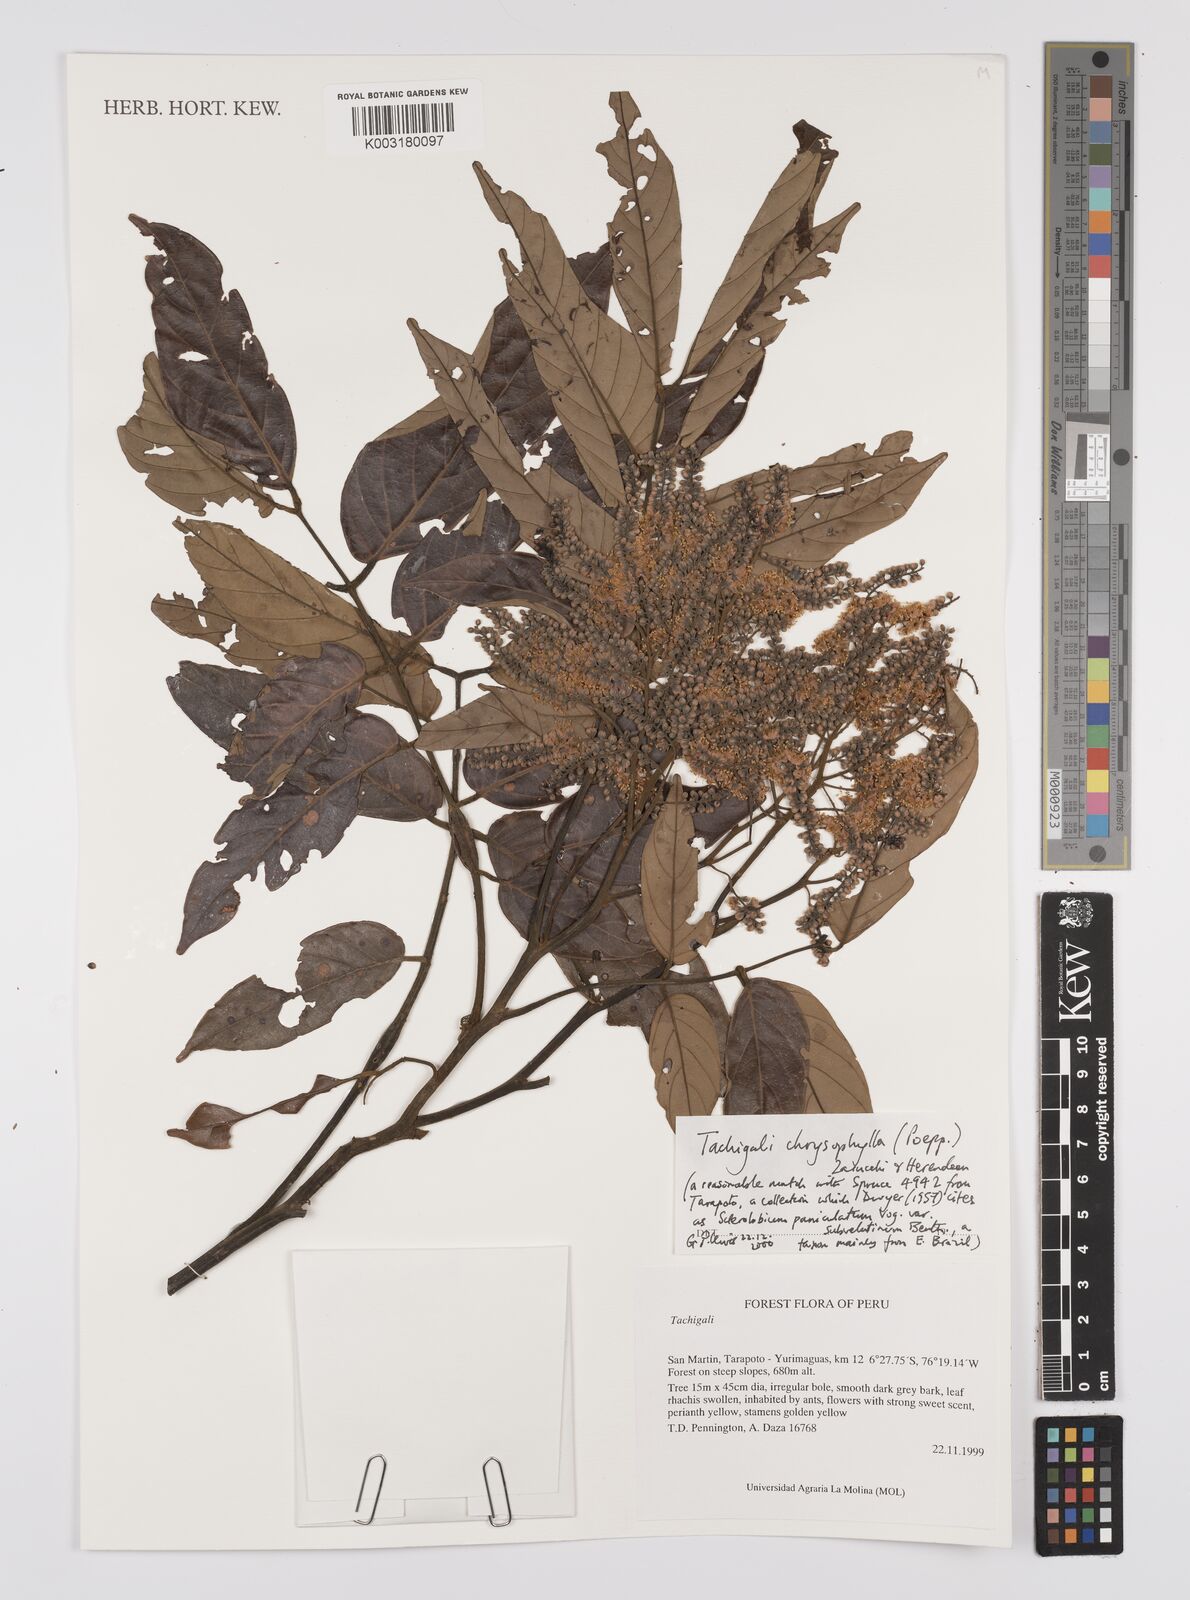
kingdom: Plantae
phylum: Tracheophyta
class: Magnoliopsida
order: Fabales
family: Fabaceae
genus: Tachigali
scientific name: Tachigali chrysophylla
